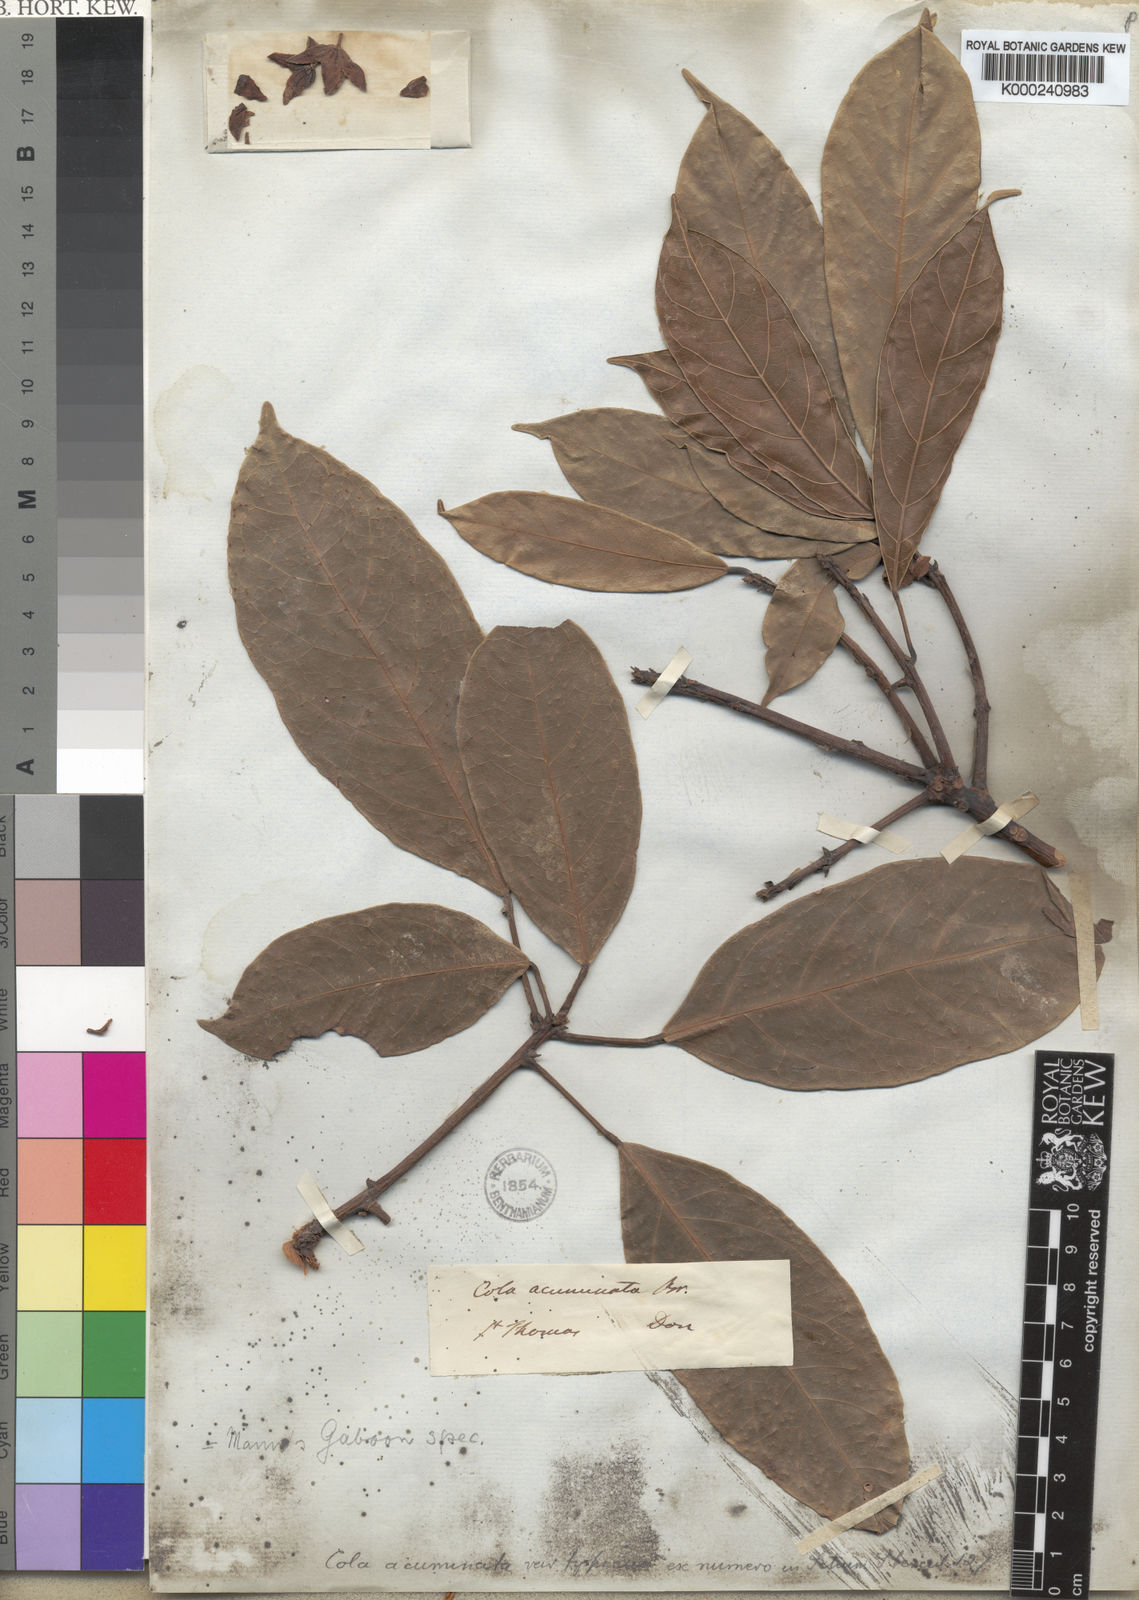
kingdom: Plantae
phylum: Tracheophyta
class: Magnoliopsida
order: Malvales
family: Malvaceae
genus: Cola
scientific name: Cola acuminata
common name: True kola
